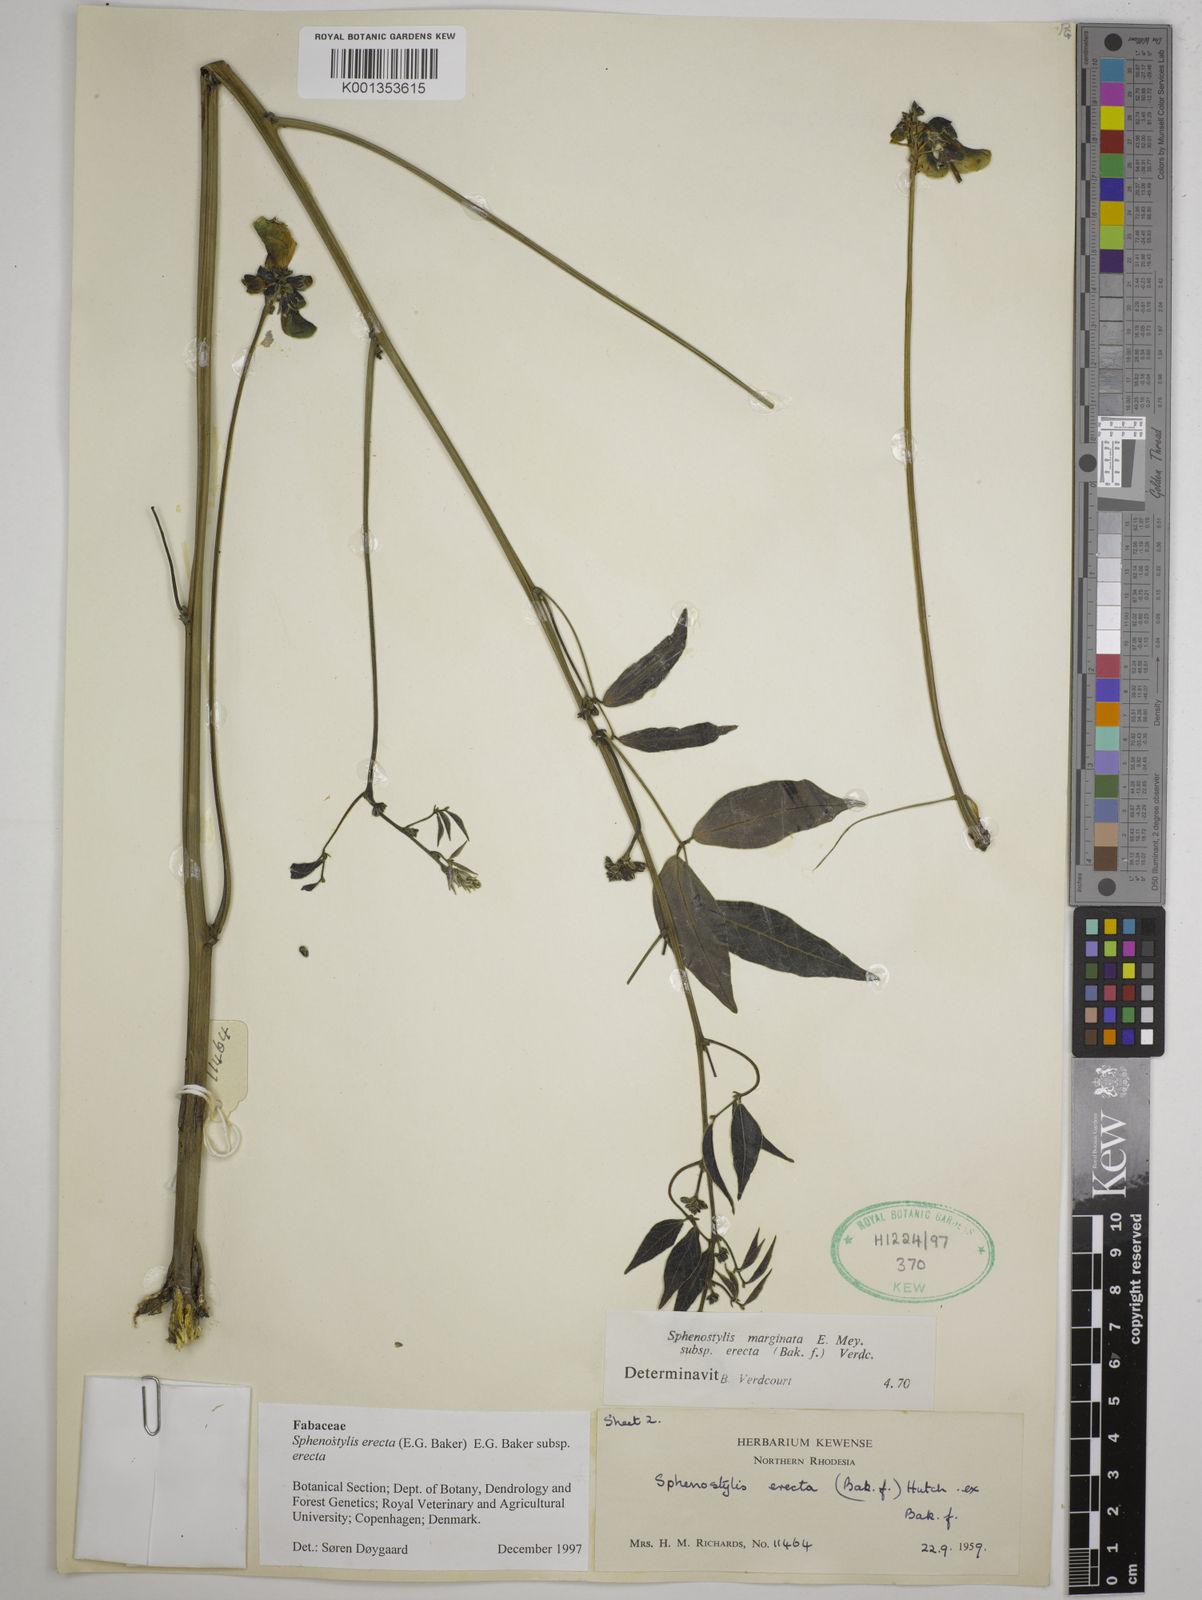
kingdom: Plantae
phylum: Tracheophyta
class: Magnoliopsida
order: Fabales
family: Fabaceae
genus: Sphenostylis
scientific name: Sphenostylis erecta
